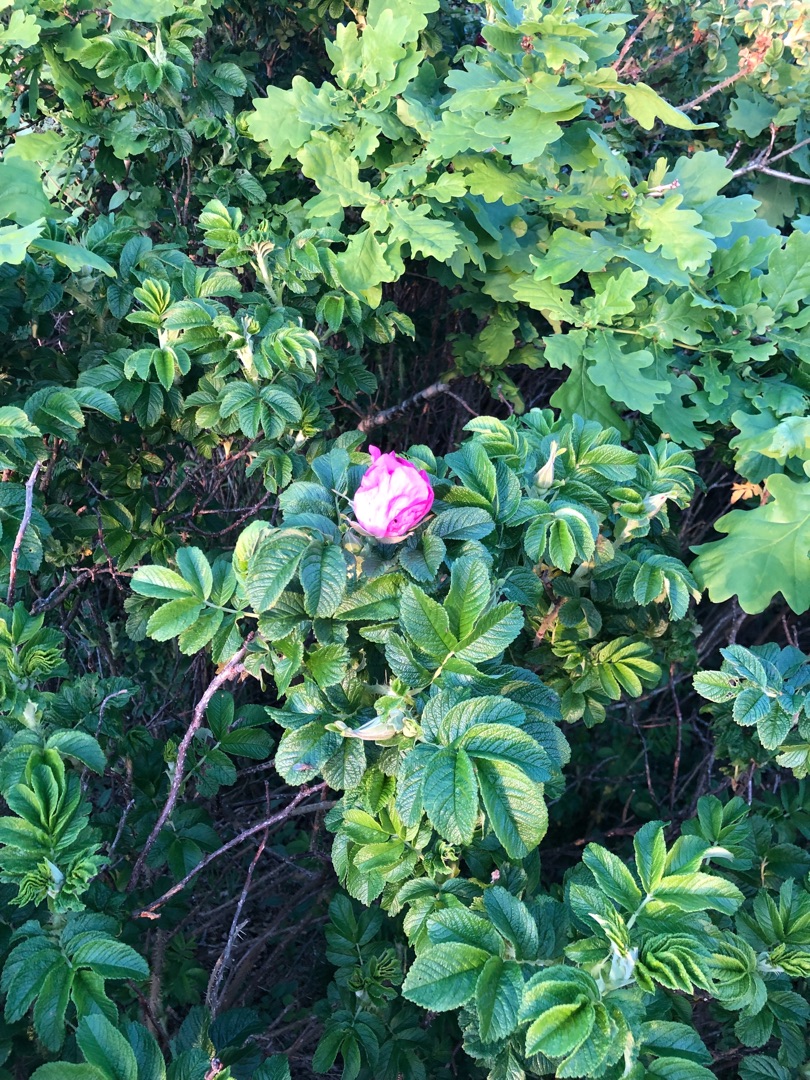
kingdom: Plantae
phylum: Tracheophyta
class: Magnoliopsida
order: Rosales
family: Rosaceae
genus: Rosa
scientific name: Rosa rugosa
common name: Rynket rose
